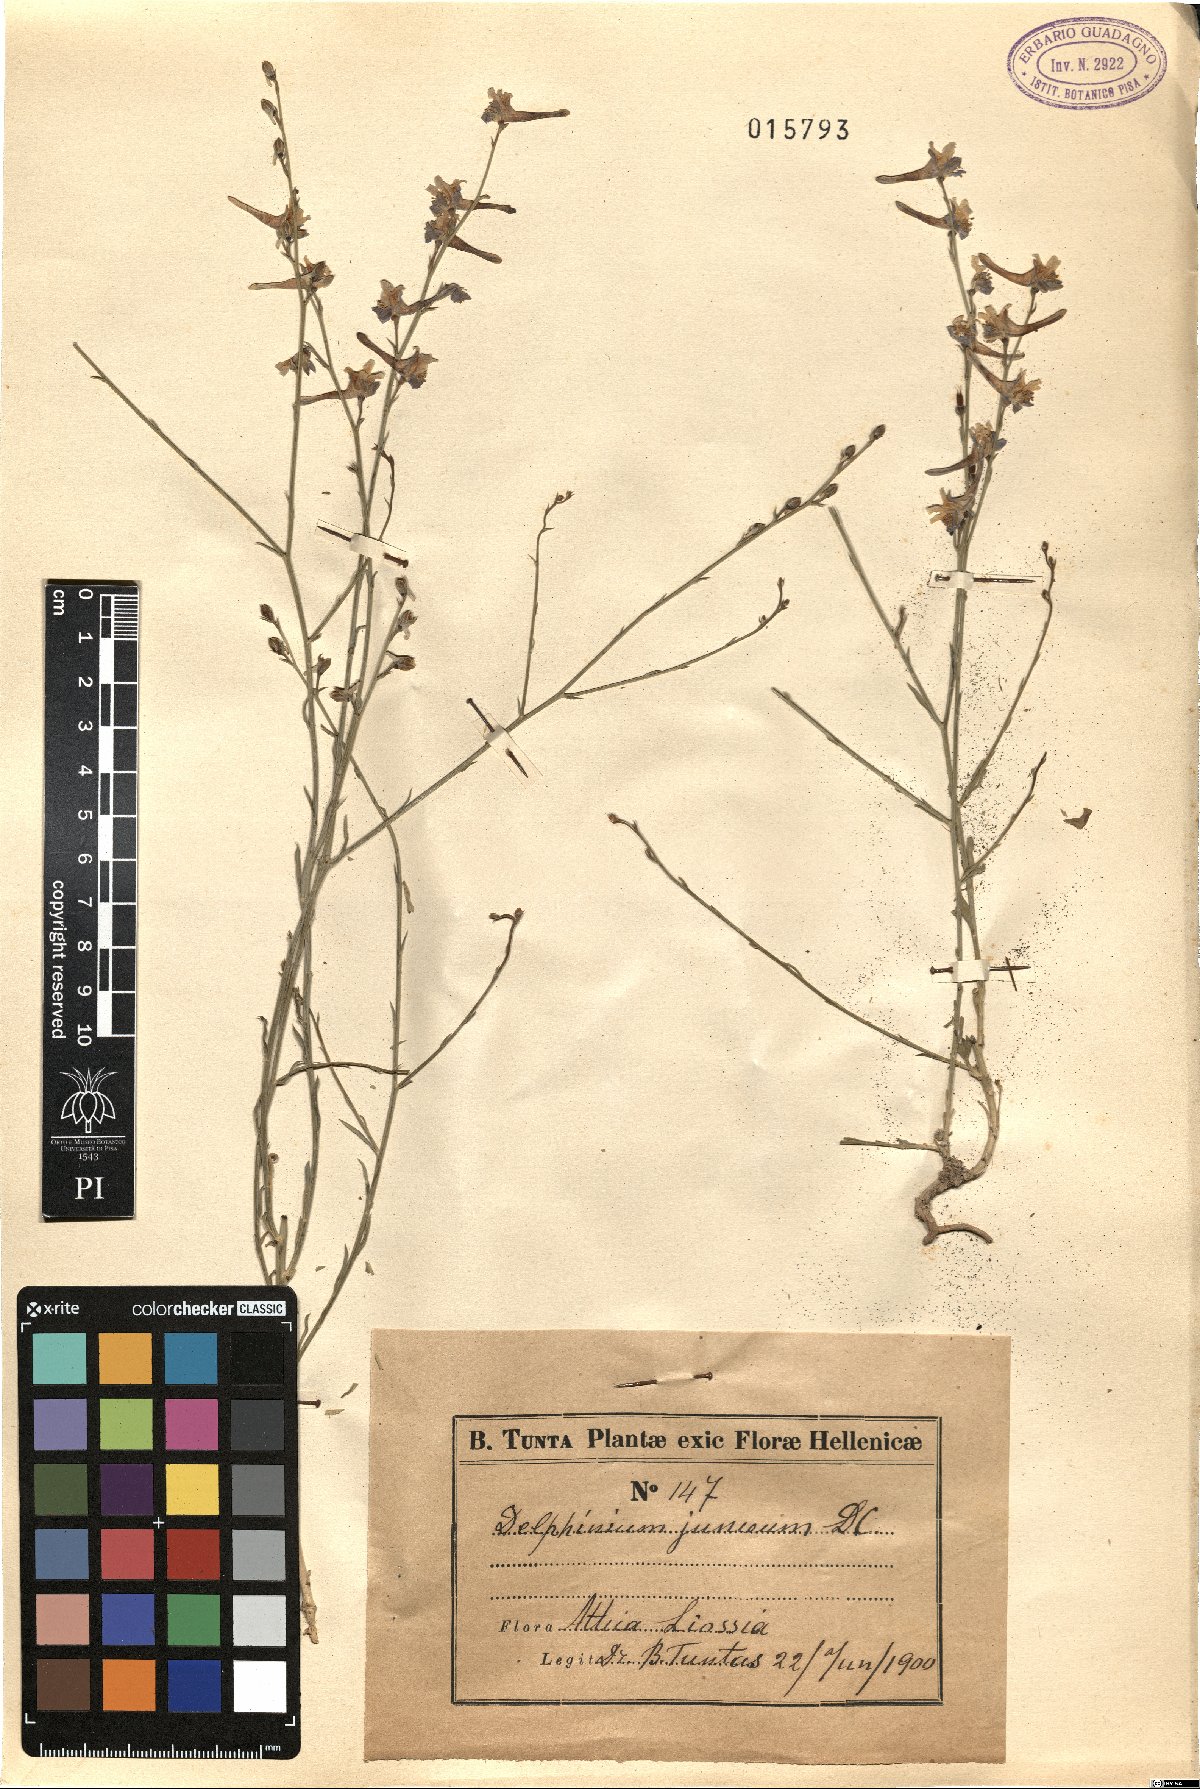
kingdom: Plantae
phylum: Tracheophyta
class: Magnoliopsida
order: Ranunculales
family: Ranunculaceae
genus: Delphinium
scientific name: Delphinium peregrinum
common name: Violet larkspur
